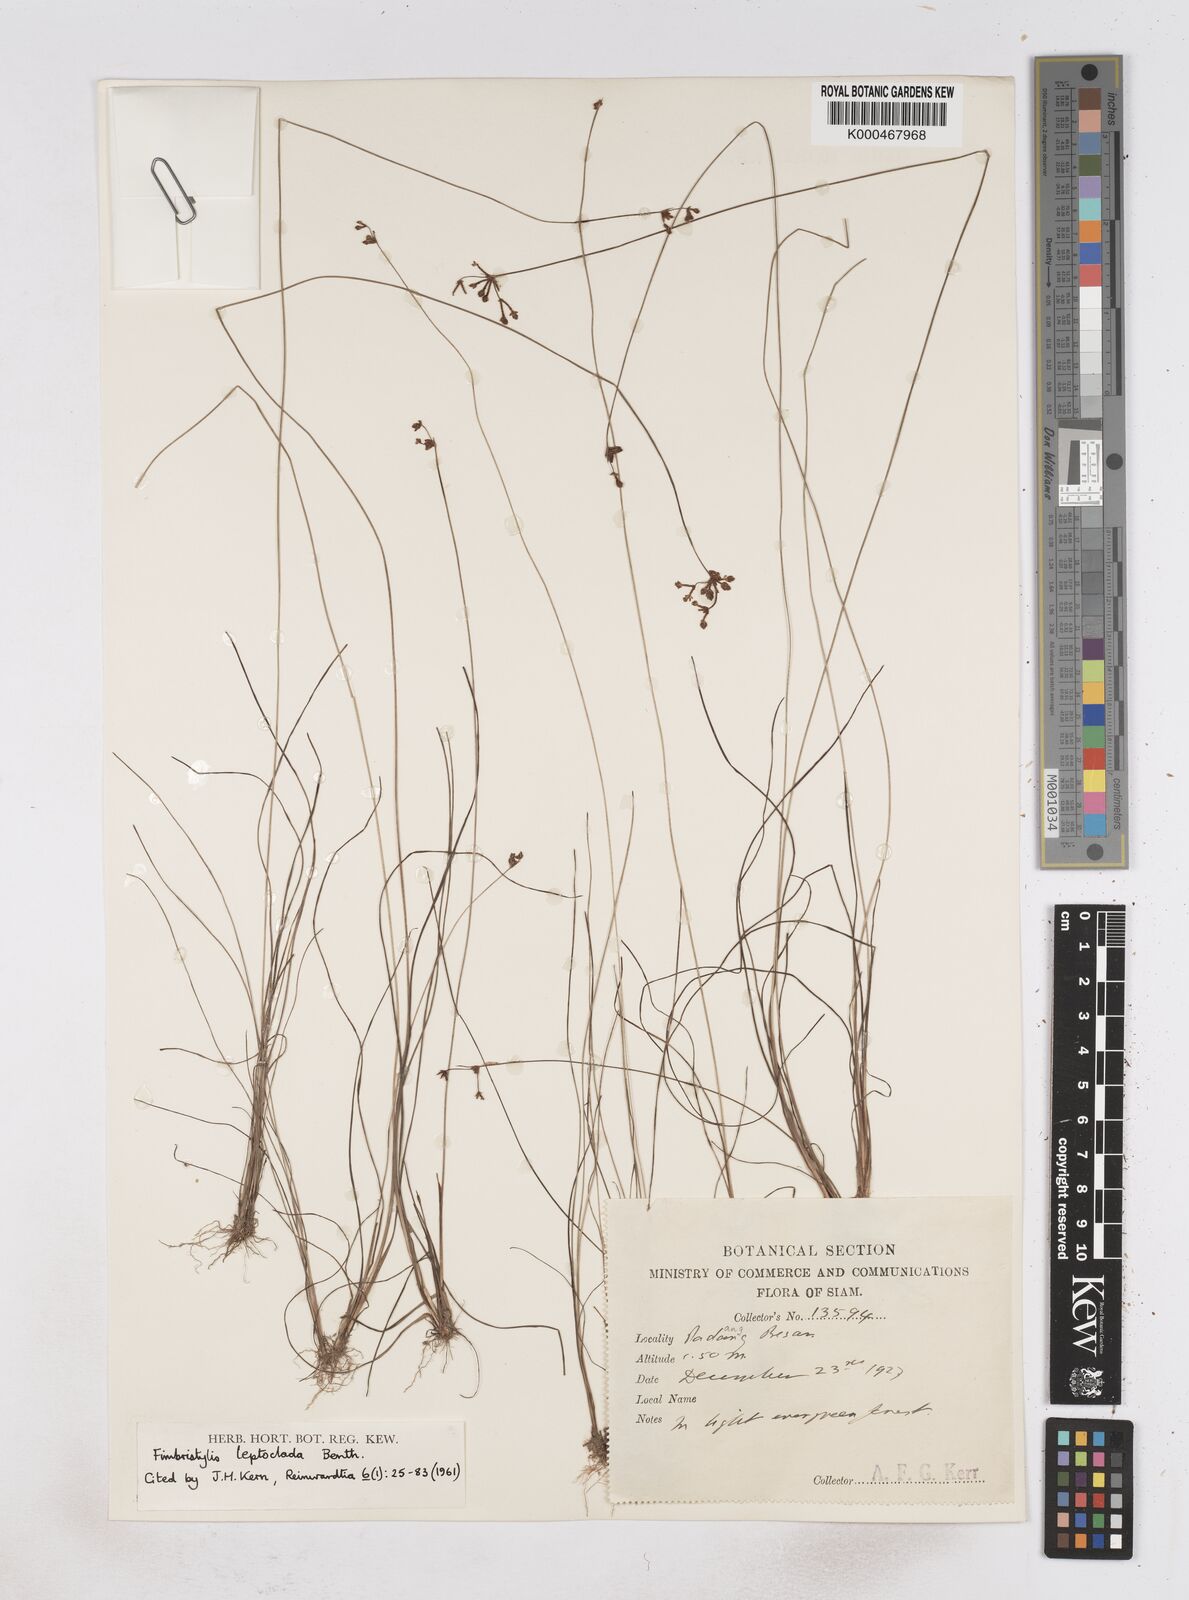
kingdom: Plantae
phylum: Tracheophyta
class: Liliopsida
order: Poales
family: Cyperaceae
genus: Fimbristylis
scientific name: Fimbristylis leptoclada
